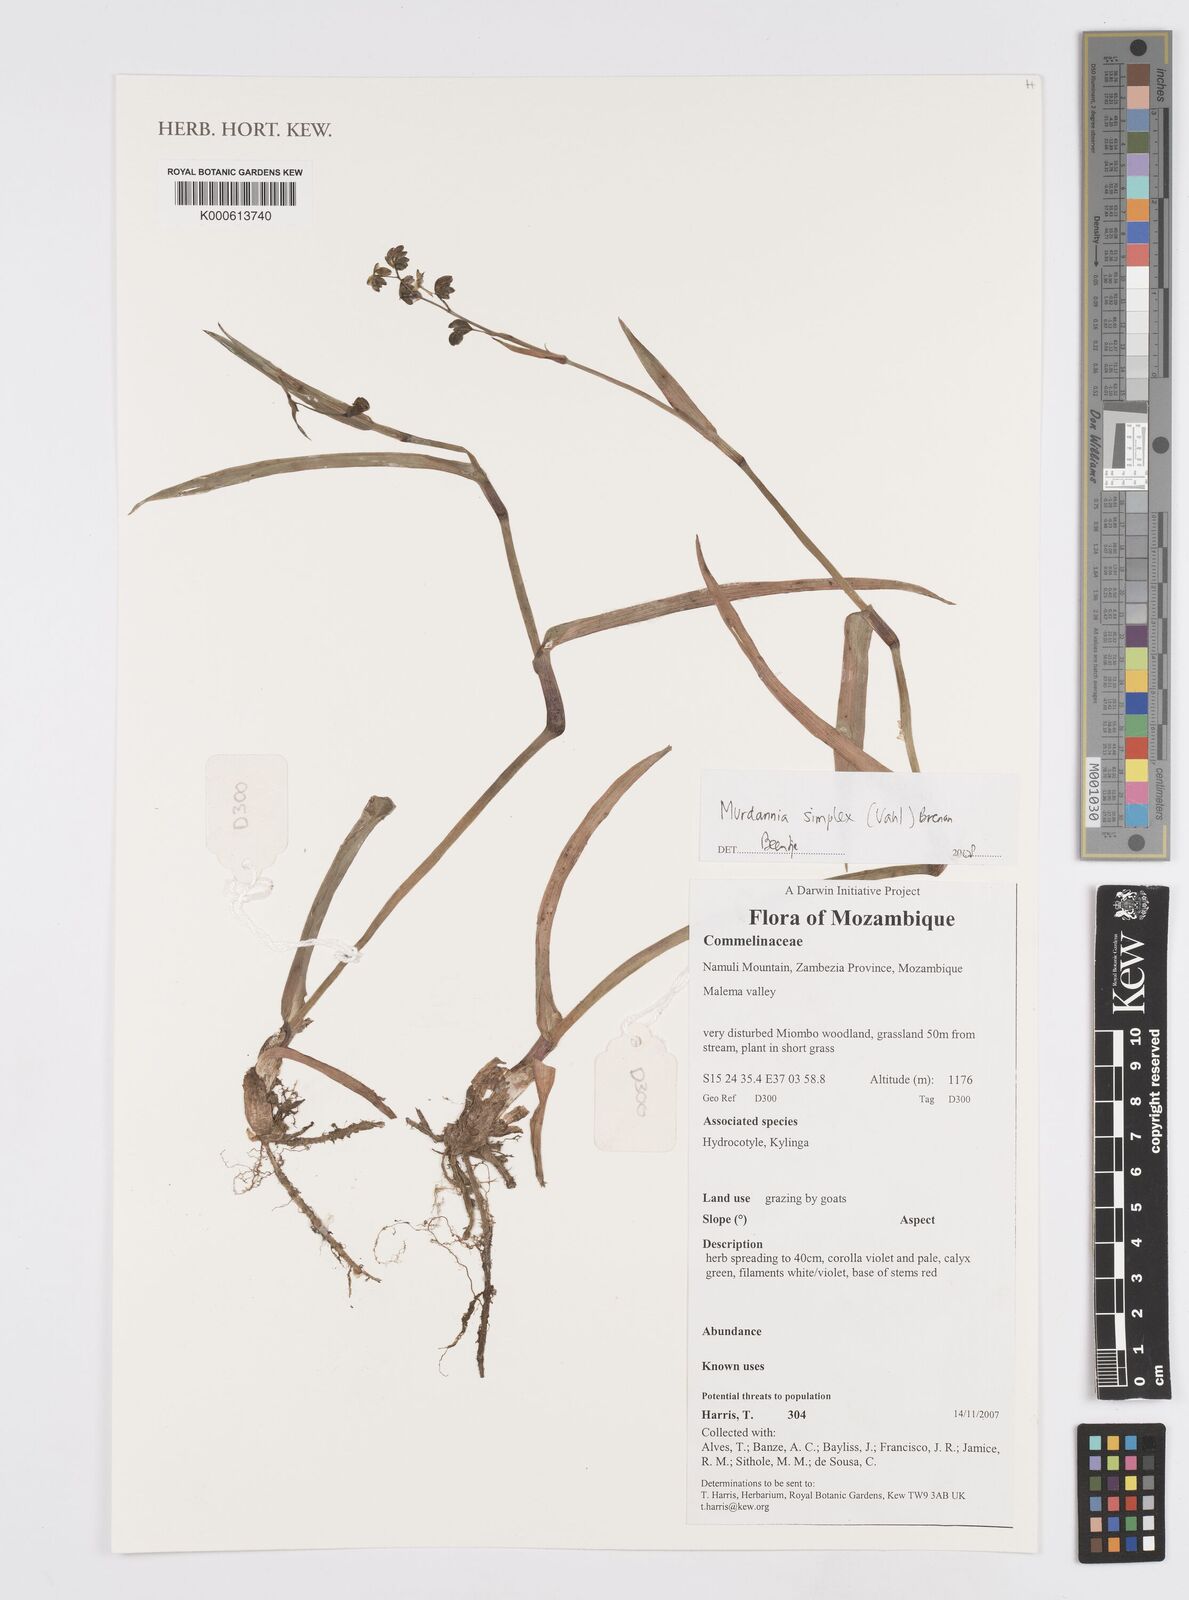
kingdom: Plantae
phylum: Tracheophyta
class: Liliopsida
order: Commelinales
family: Commelinaceae
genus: Murdannia
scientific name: Murdannia simplex
